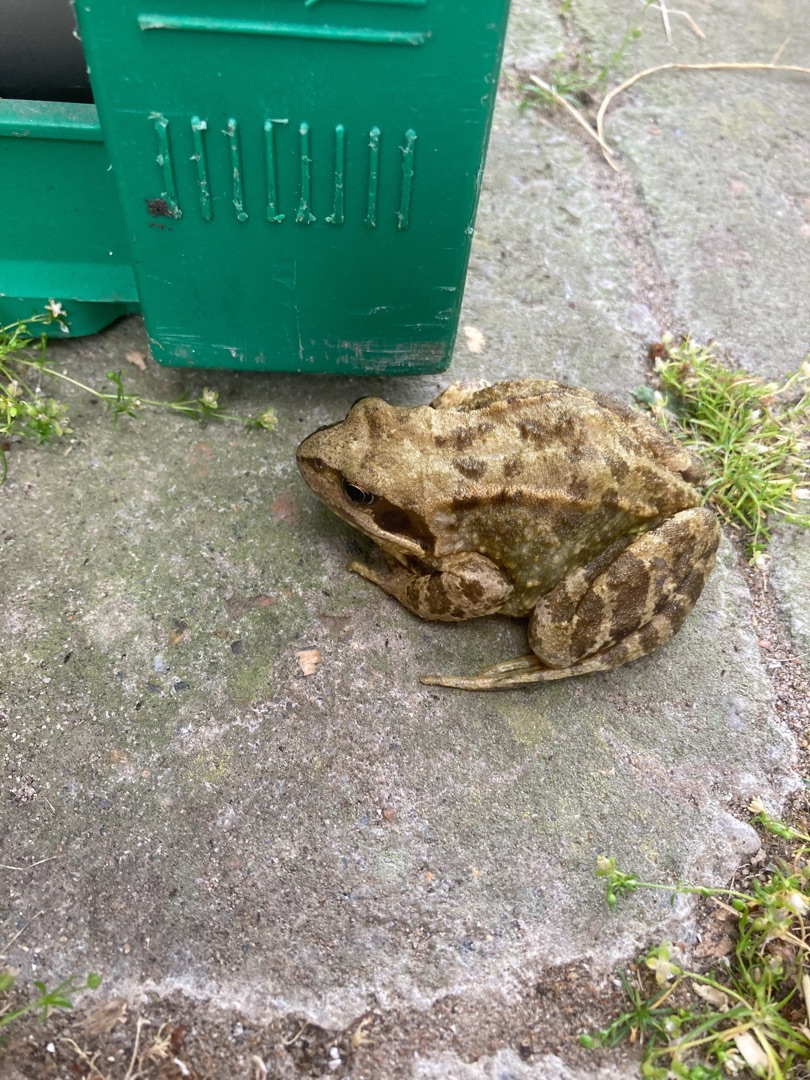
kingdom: Animalia
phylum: Chordata
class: Amphibia
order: Anura
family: Ranidae
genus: Rana
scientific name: Rana temporaria
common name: Butsnudet frø
